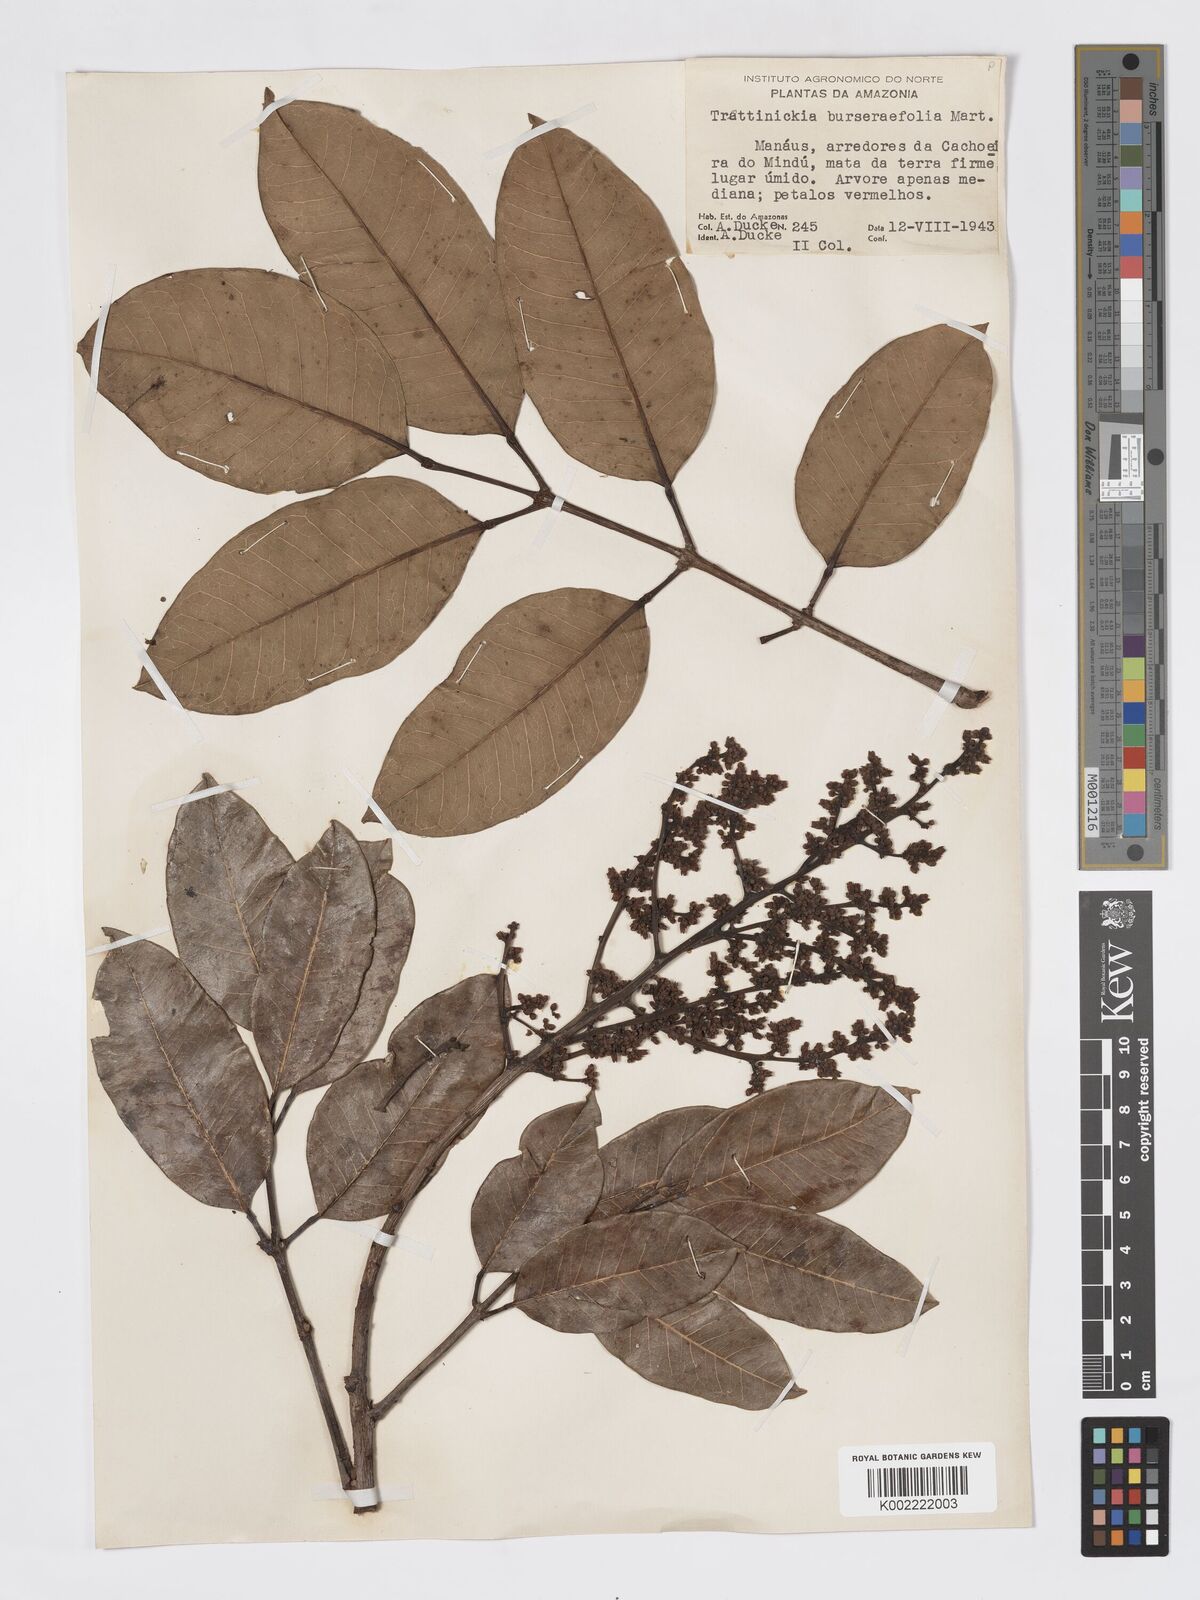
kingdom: Plantae
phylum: Tracheophyta
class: Magnoliopsida
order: Sapindales
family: Burseraceae
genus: Trattinnickia
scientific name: Trattinnickia burserifolia
